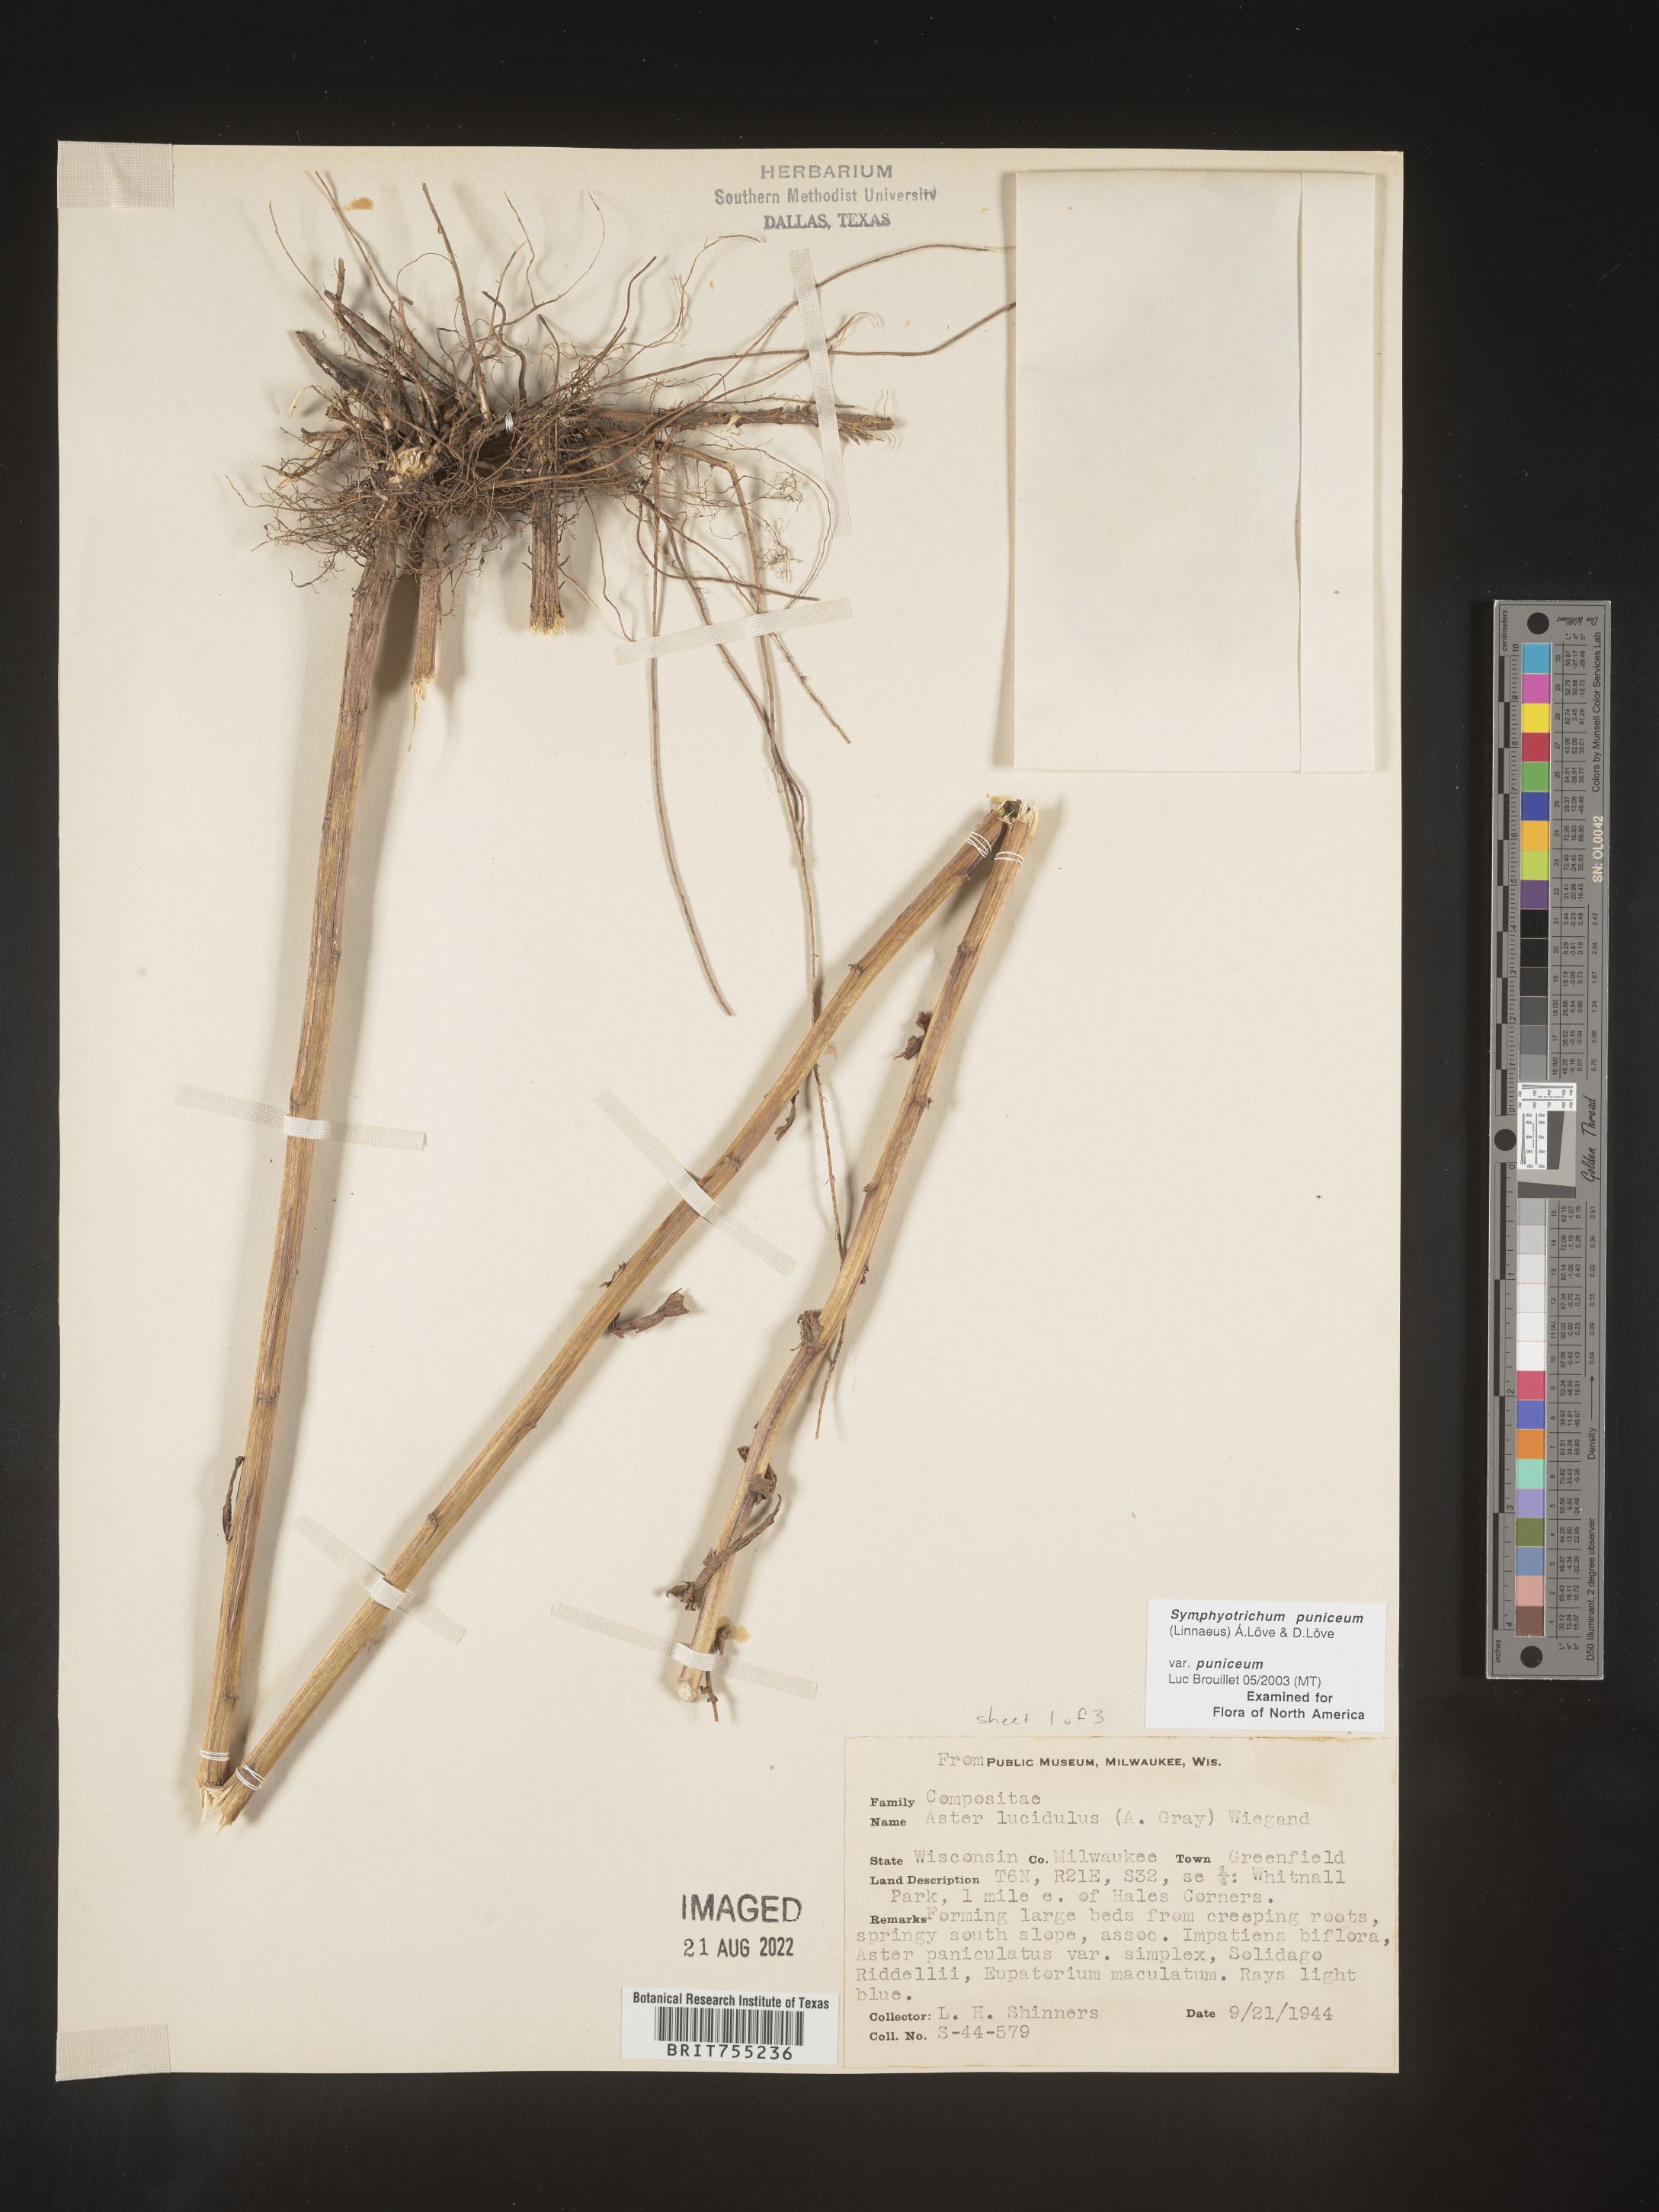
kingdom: Plantae
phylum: Tracheophyta
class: Magnoliopsida
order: Asterales
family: Asteraceae
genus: Symphyotrichum
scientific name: Symphyotrichum puniceum
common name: Bog aster
